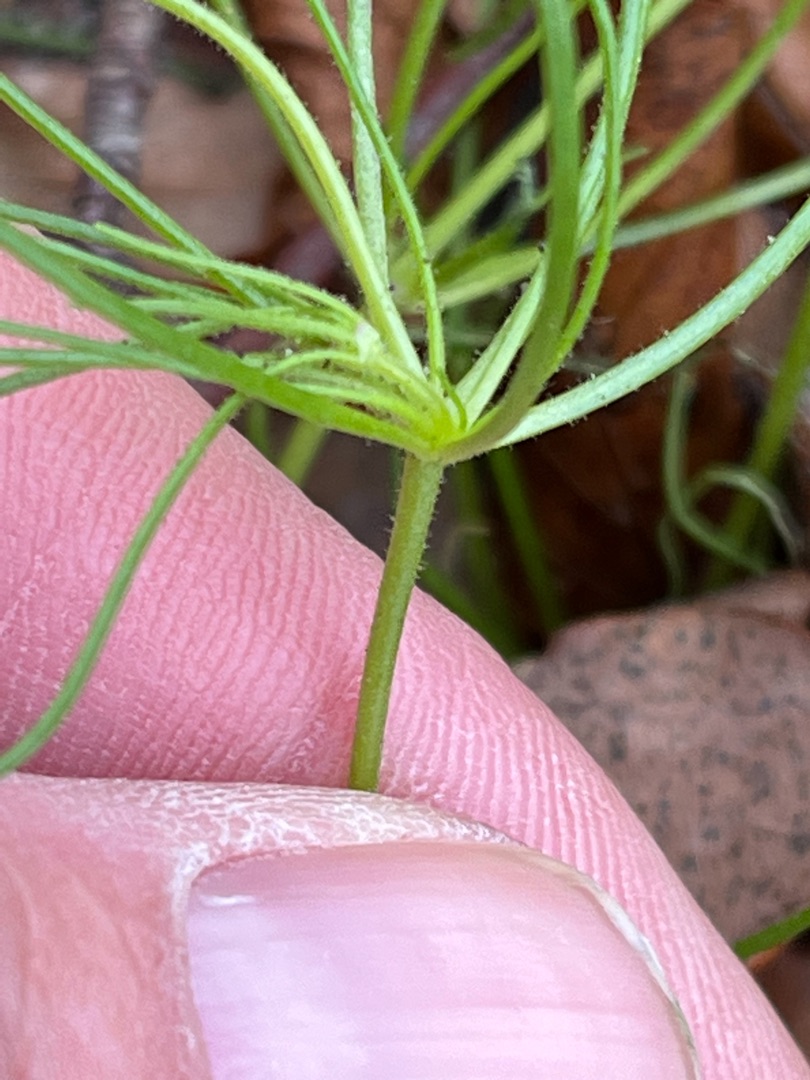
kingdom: Plantae
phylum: Tracheophyta
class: Magnoliopsida
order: Caryophyllales
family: Caryophyllaceae
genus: Spergula
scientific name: Spergula arvensis
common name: Almindelig spergel (underart)
